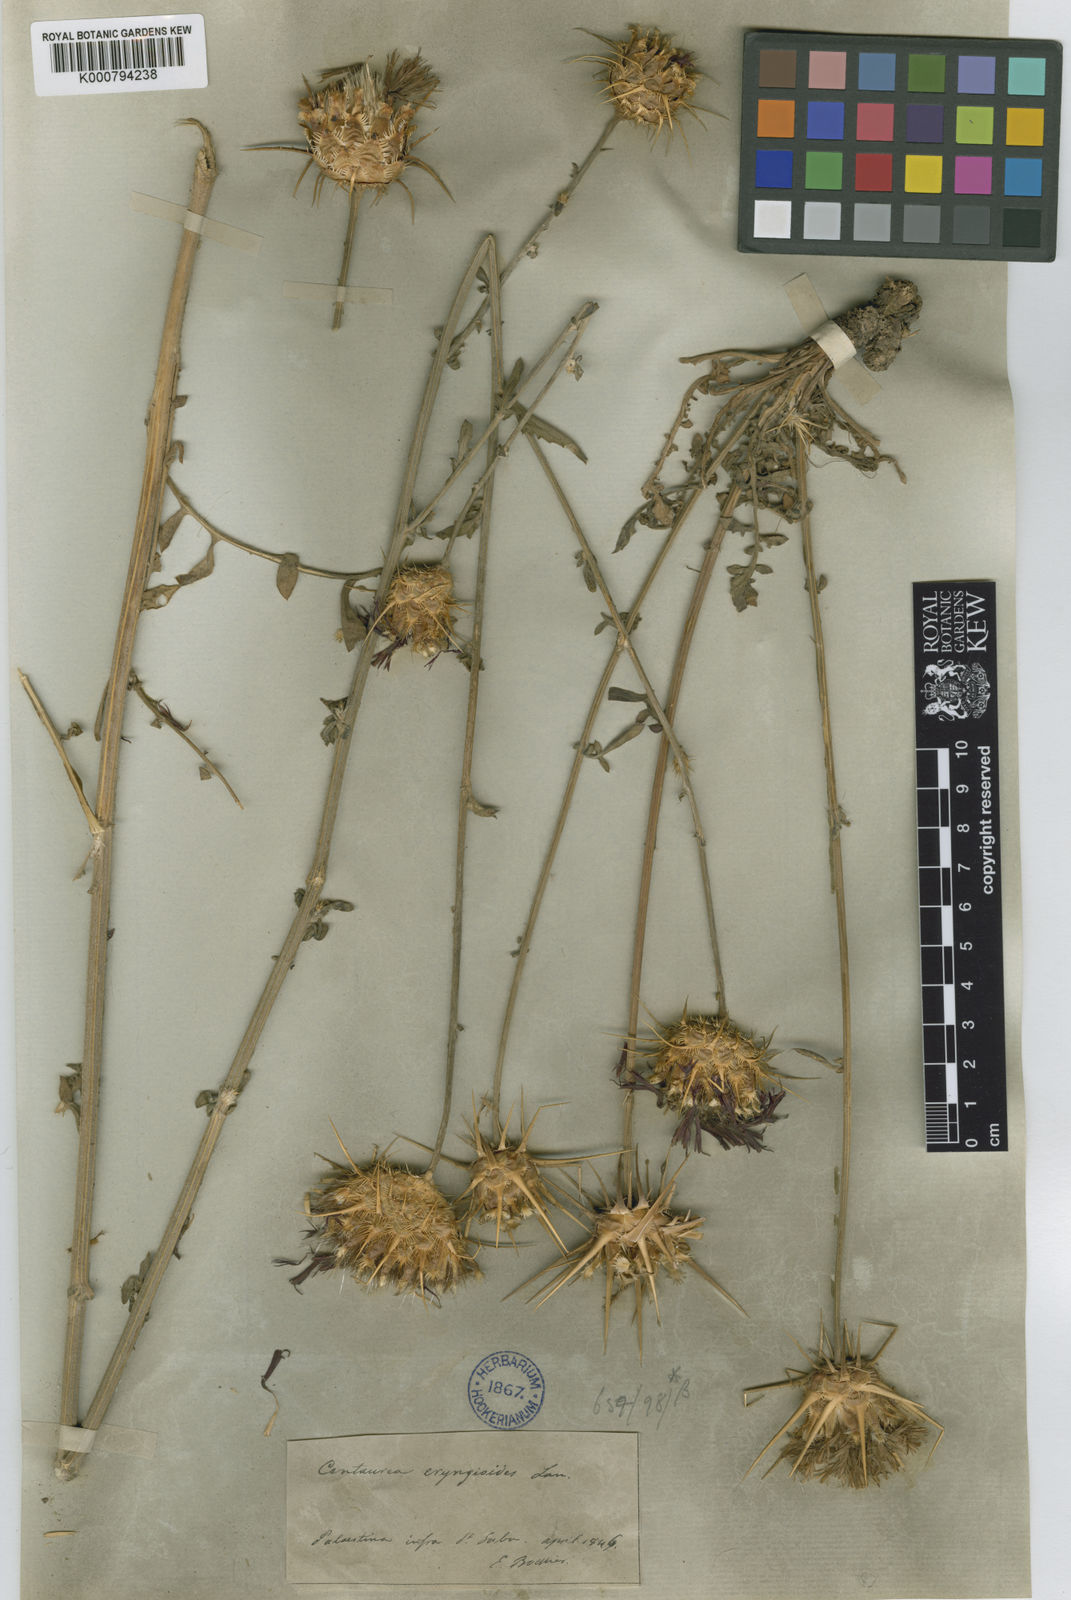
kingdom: Plantae
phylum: Tracheophyta
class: Magnoliopsida
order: Asterales
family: Asteraceae
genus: Centaurea
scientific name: Centaurea eryngioides
